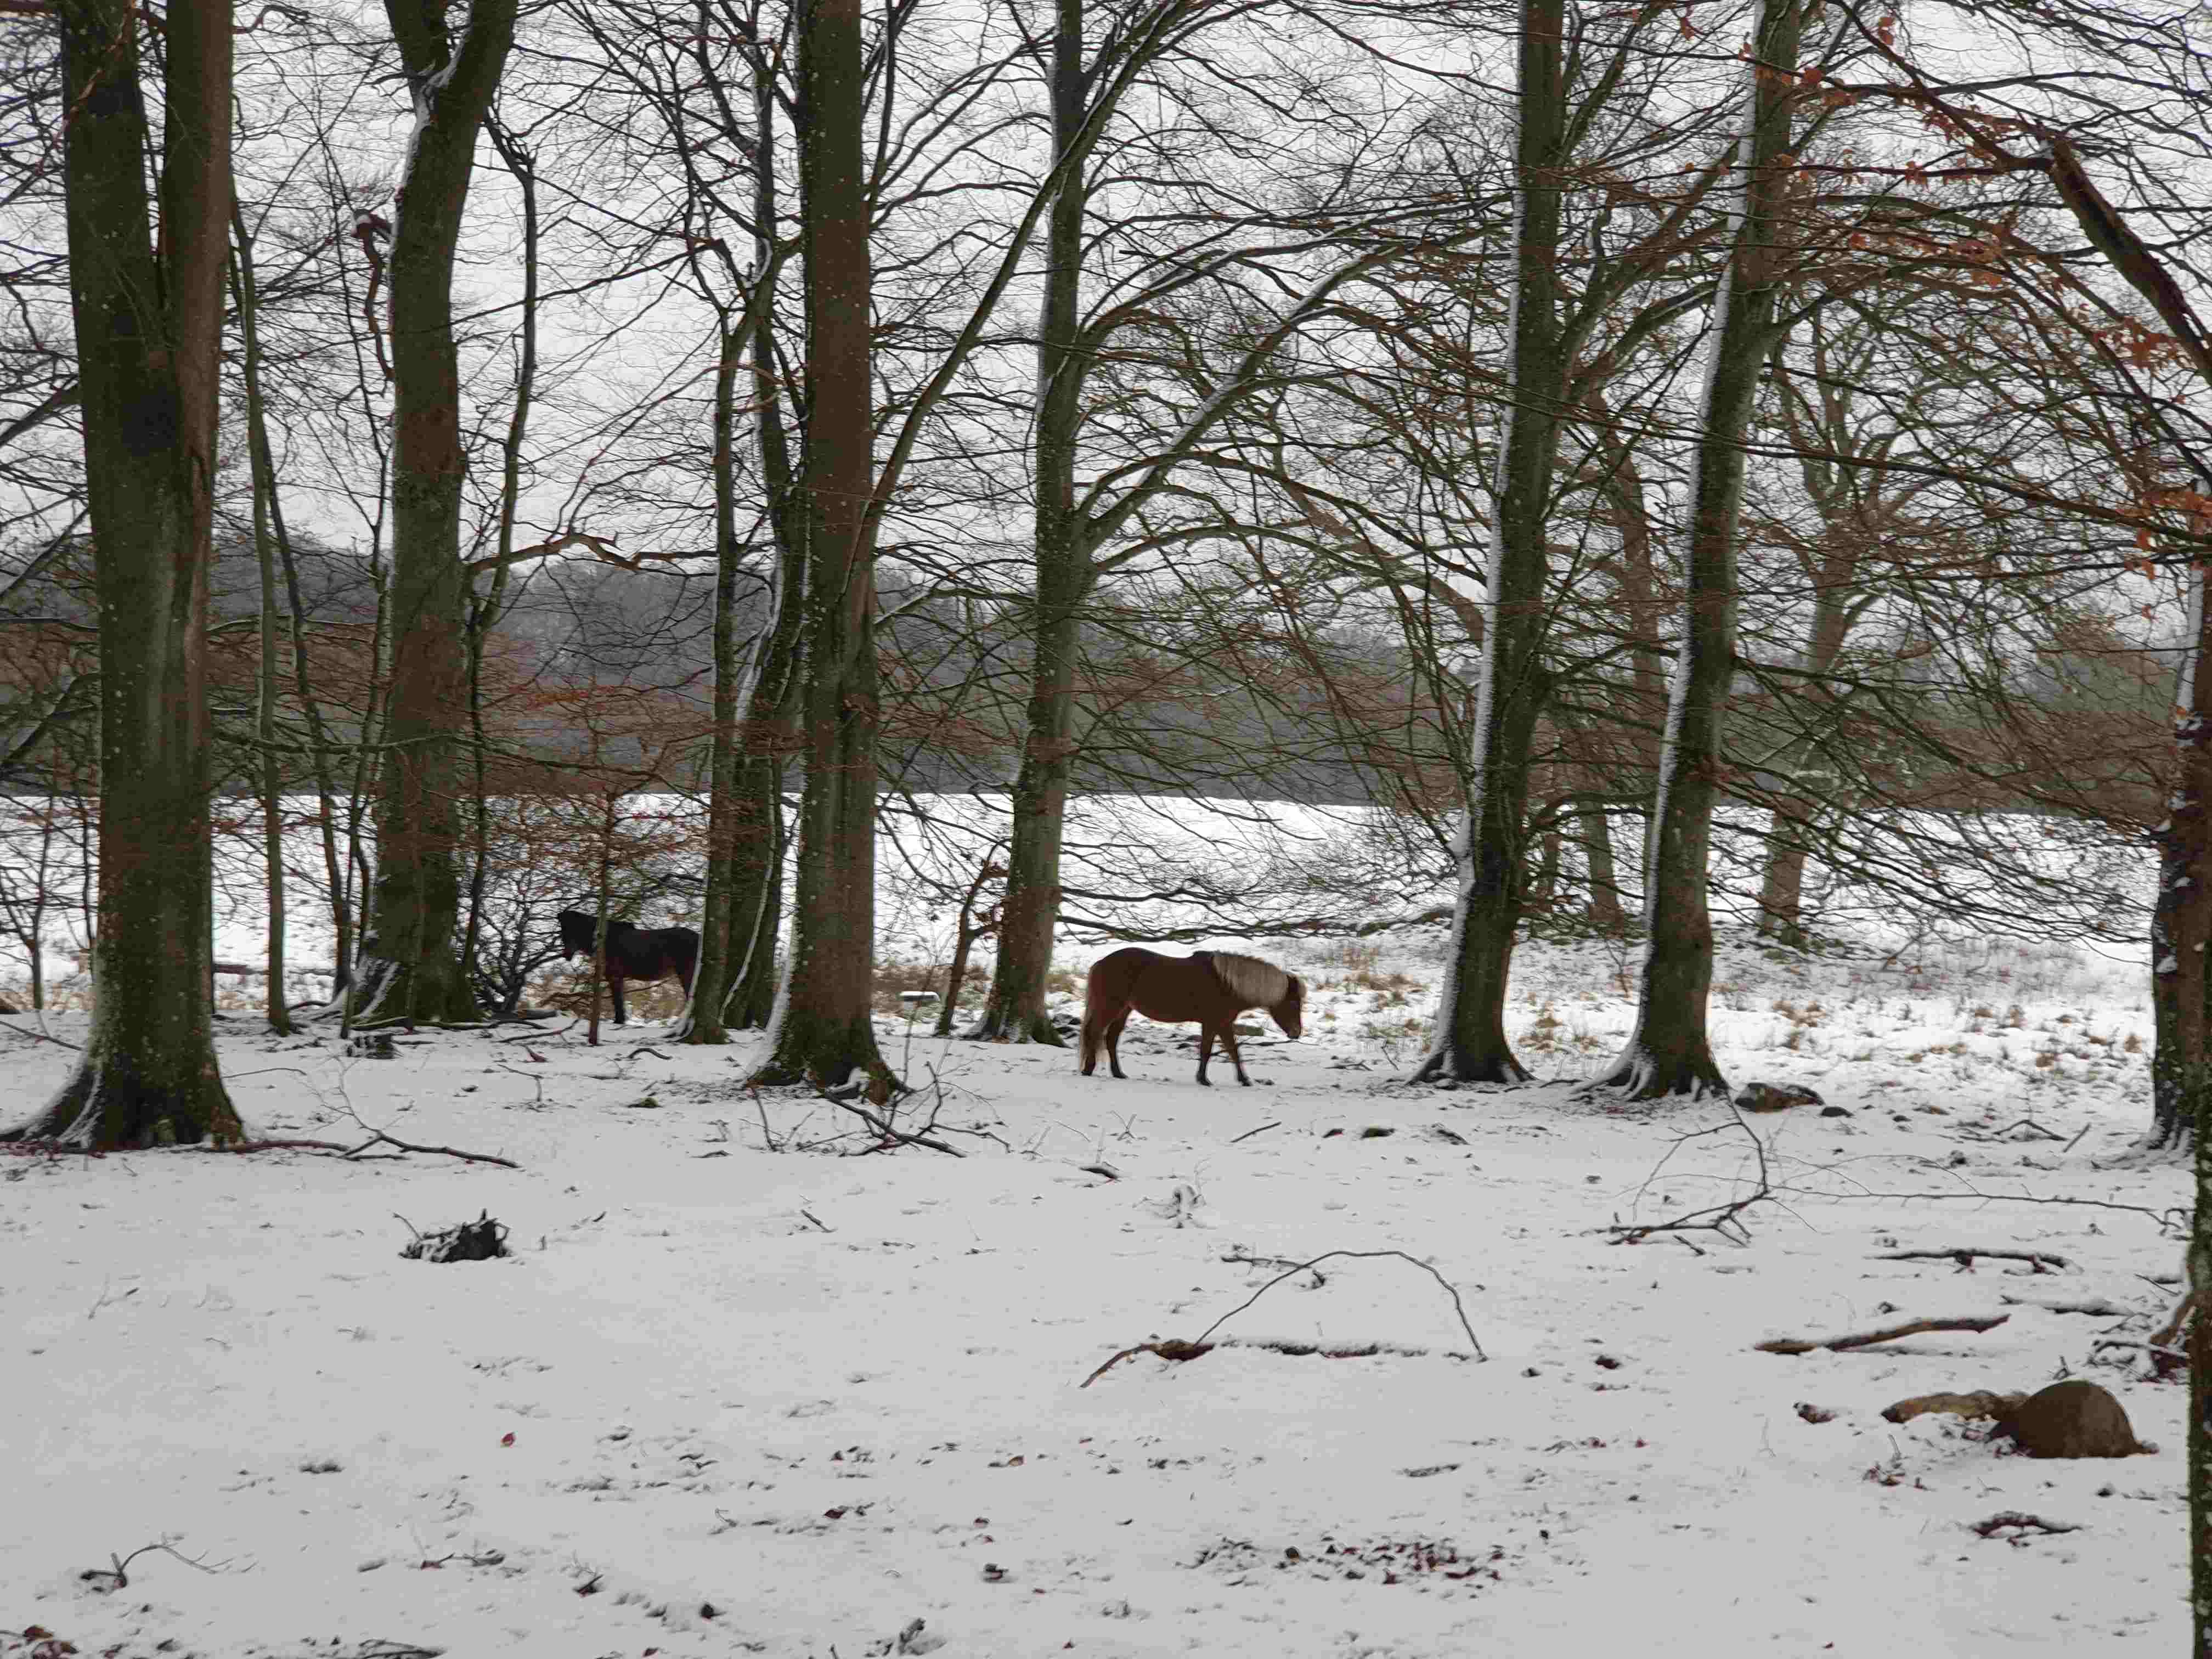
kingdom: Fungi
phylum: Basidiomycota
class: Agaricomycetes
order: Polyporales
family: Fomitopsidaceae
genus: Fomitopsis
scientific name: Fomitopsis pinicola
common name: randbæltet hovporesvamp
